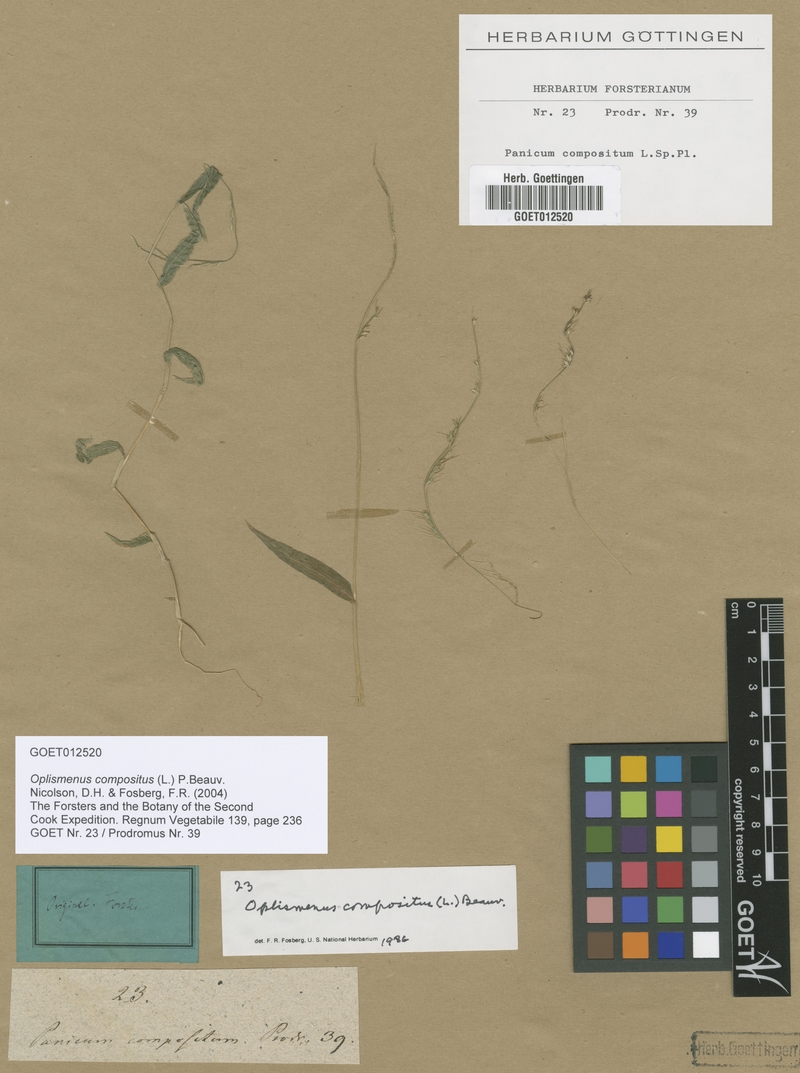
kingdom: Plantae
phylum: Tracheophyta
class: Liliopsida
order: Poales
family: Poaceae
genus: Oplismenus
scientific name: Oplismenus compositus
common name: Running mountain grass
